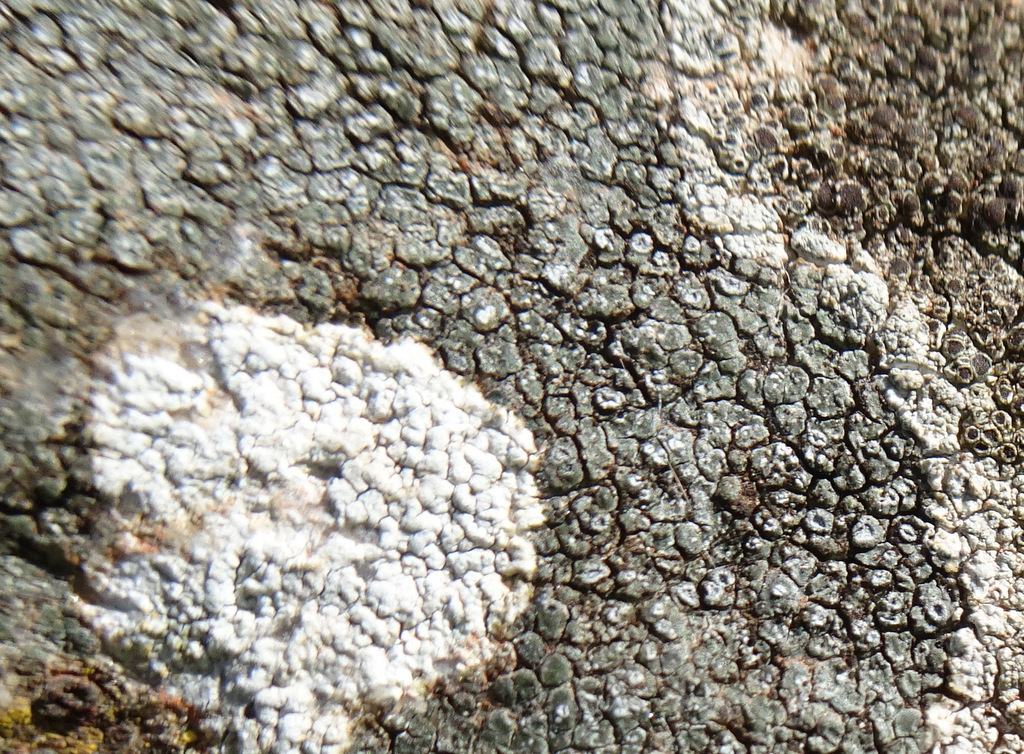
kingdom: Fungi
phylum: Ascomycota
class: Lecanoromycetes
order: Lecanorales
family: Parmeliaceae
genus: Lichen
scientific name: Lichen
